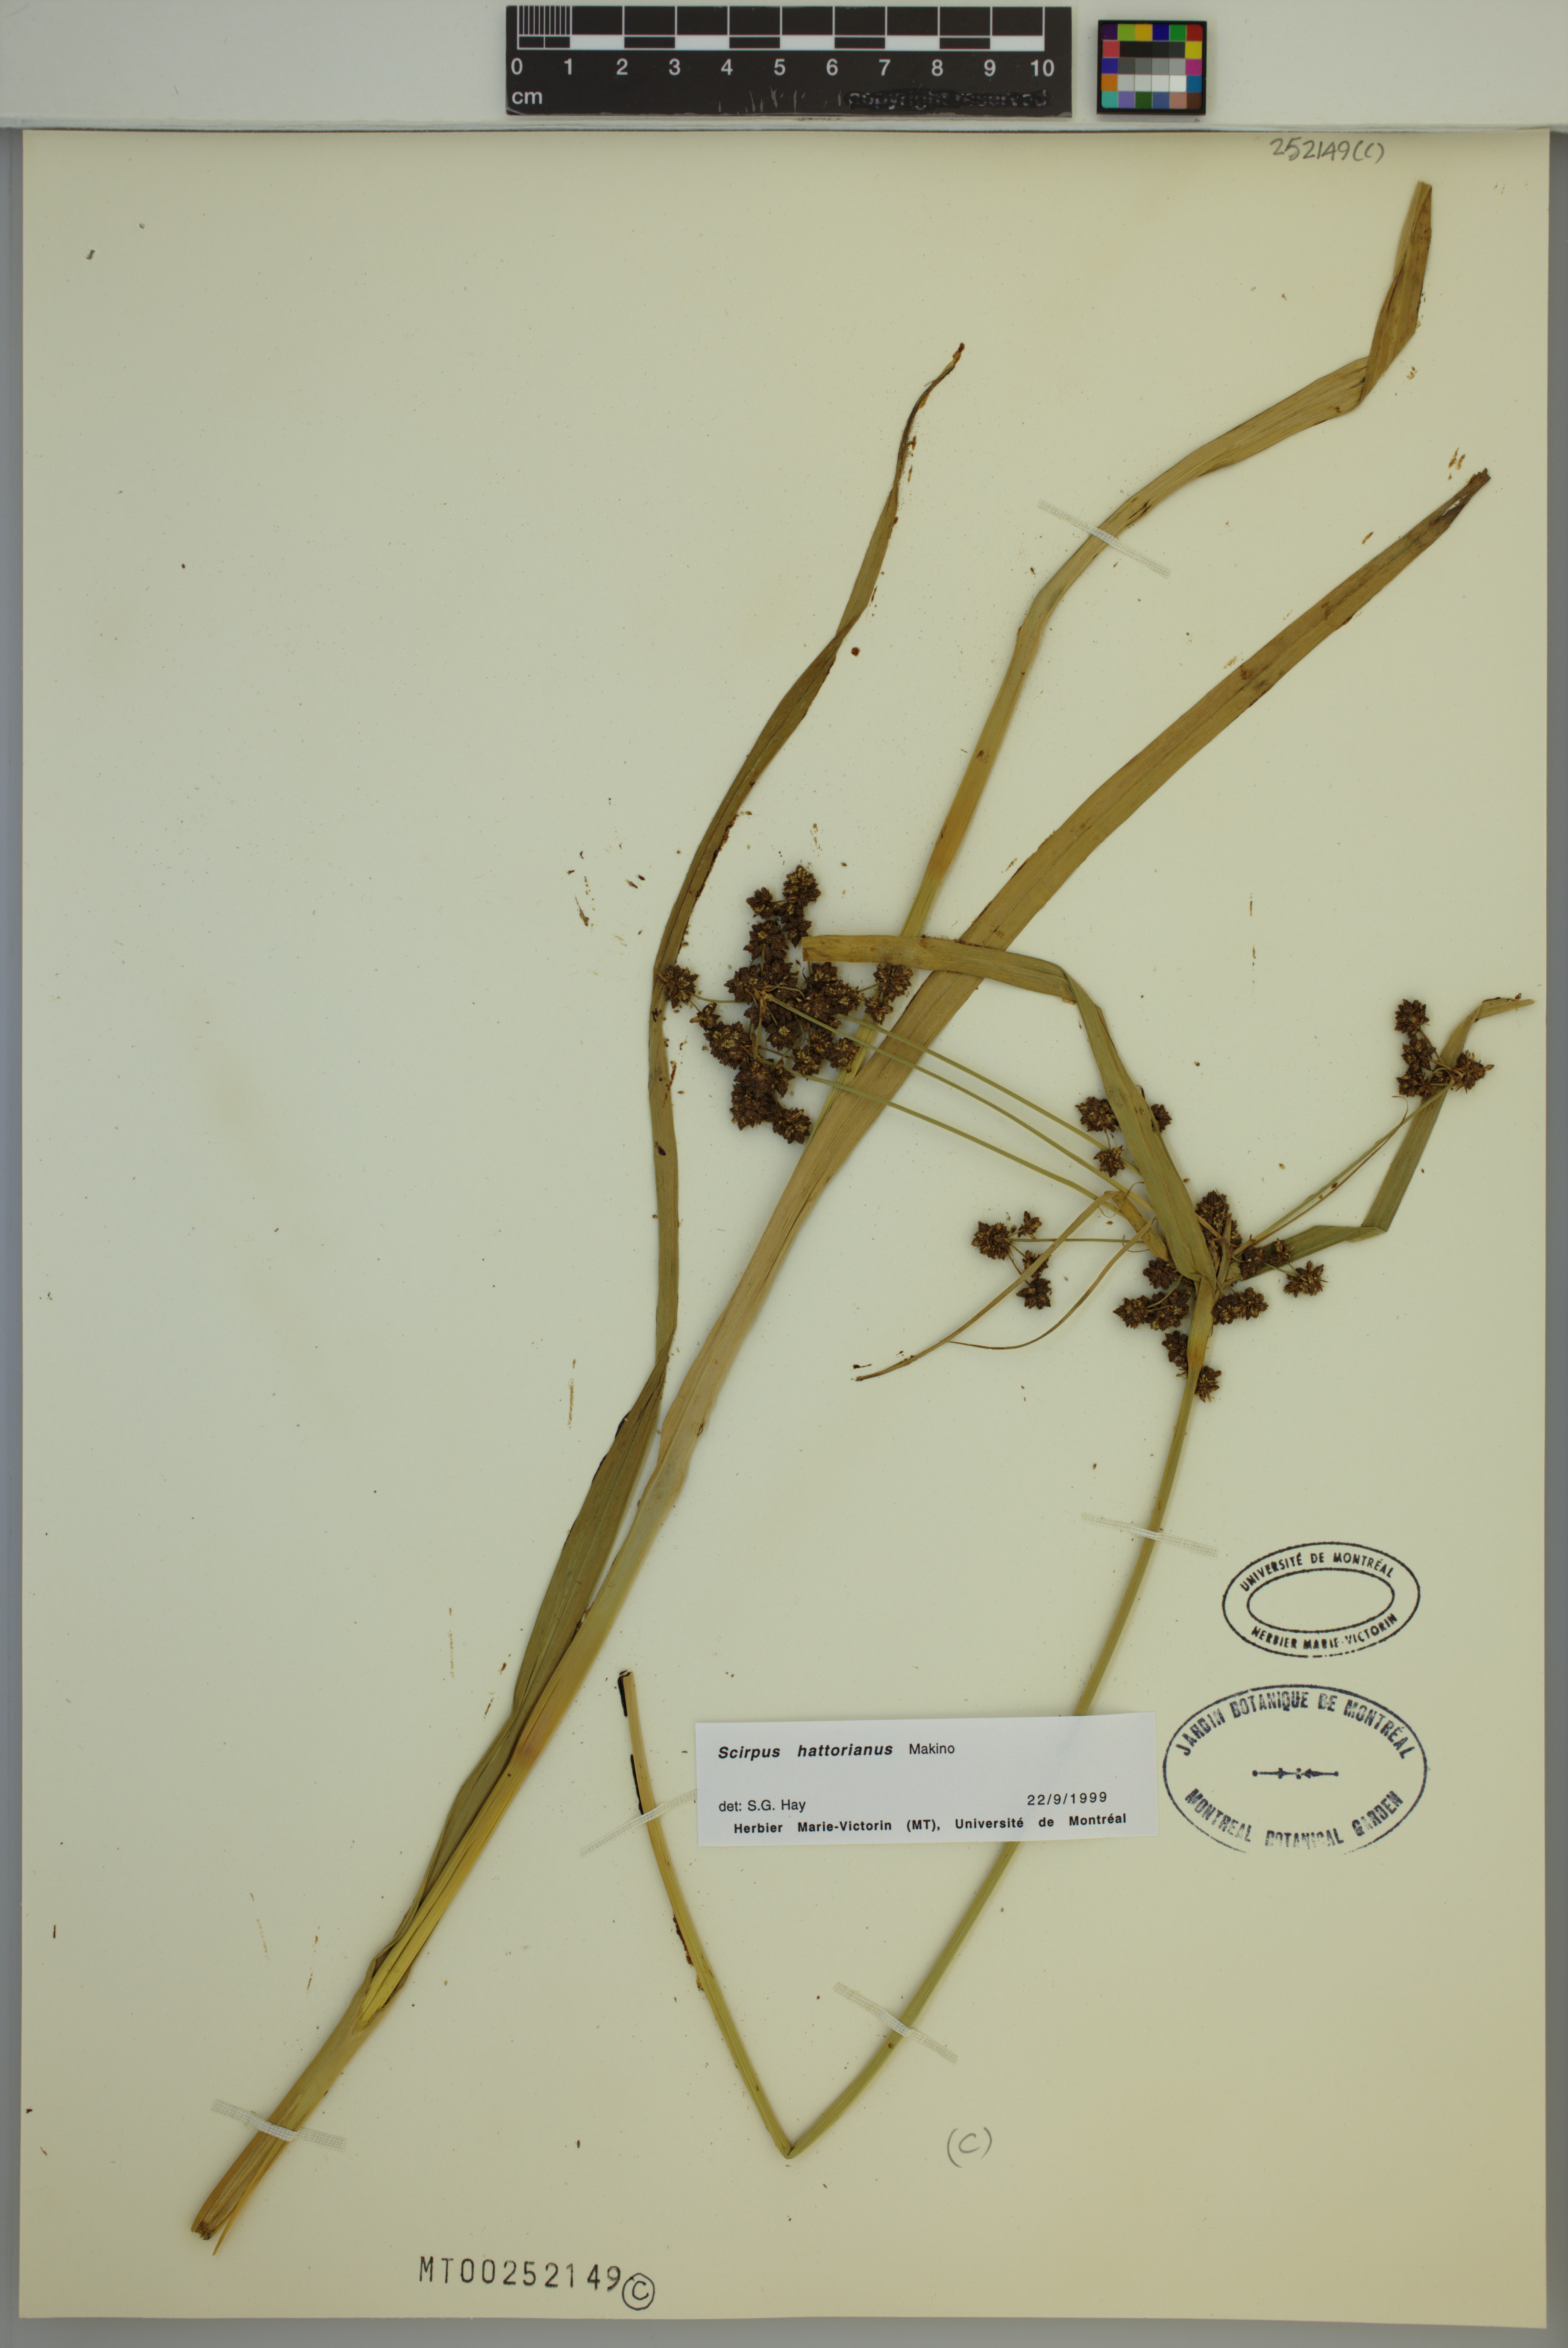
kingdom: Plantae
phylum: Tracheophyta
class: Liliopsida
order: Poales
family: Cyperaceae
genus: Scirpus
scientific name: Scirpus hattorianus
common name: Early dark-green bulrush
